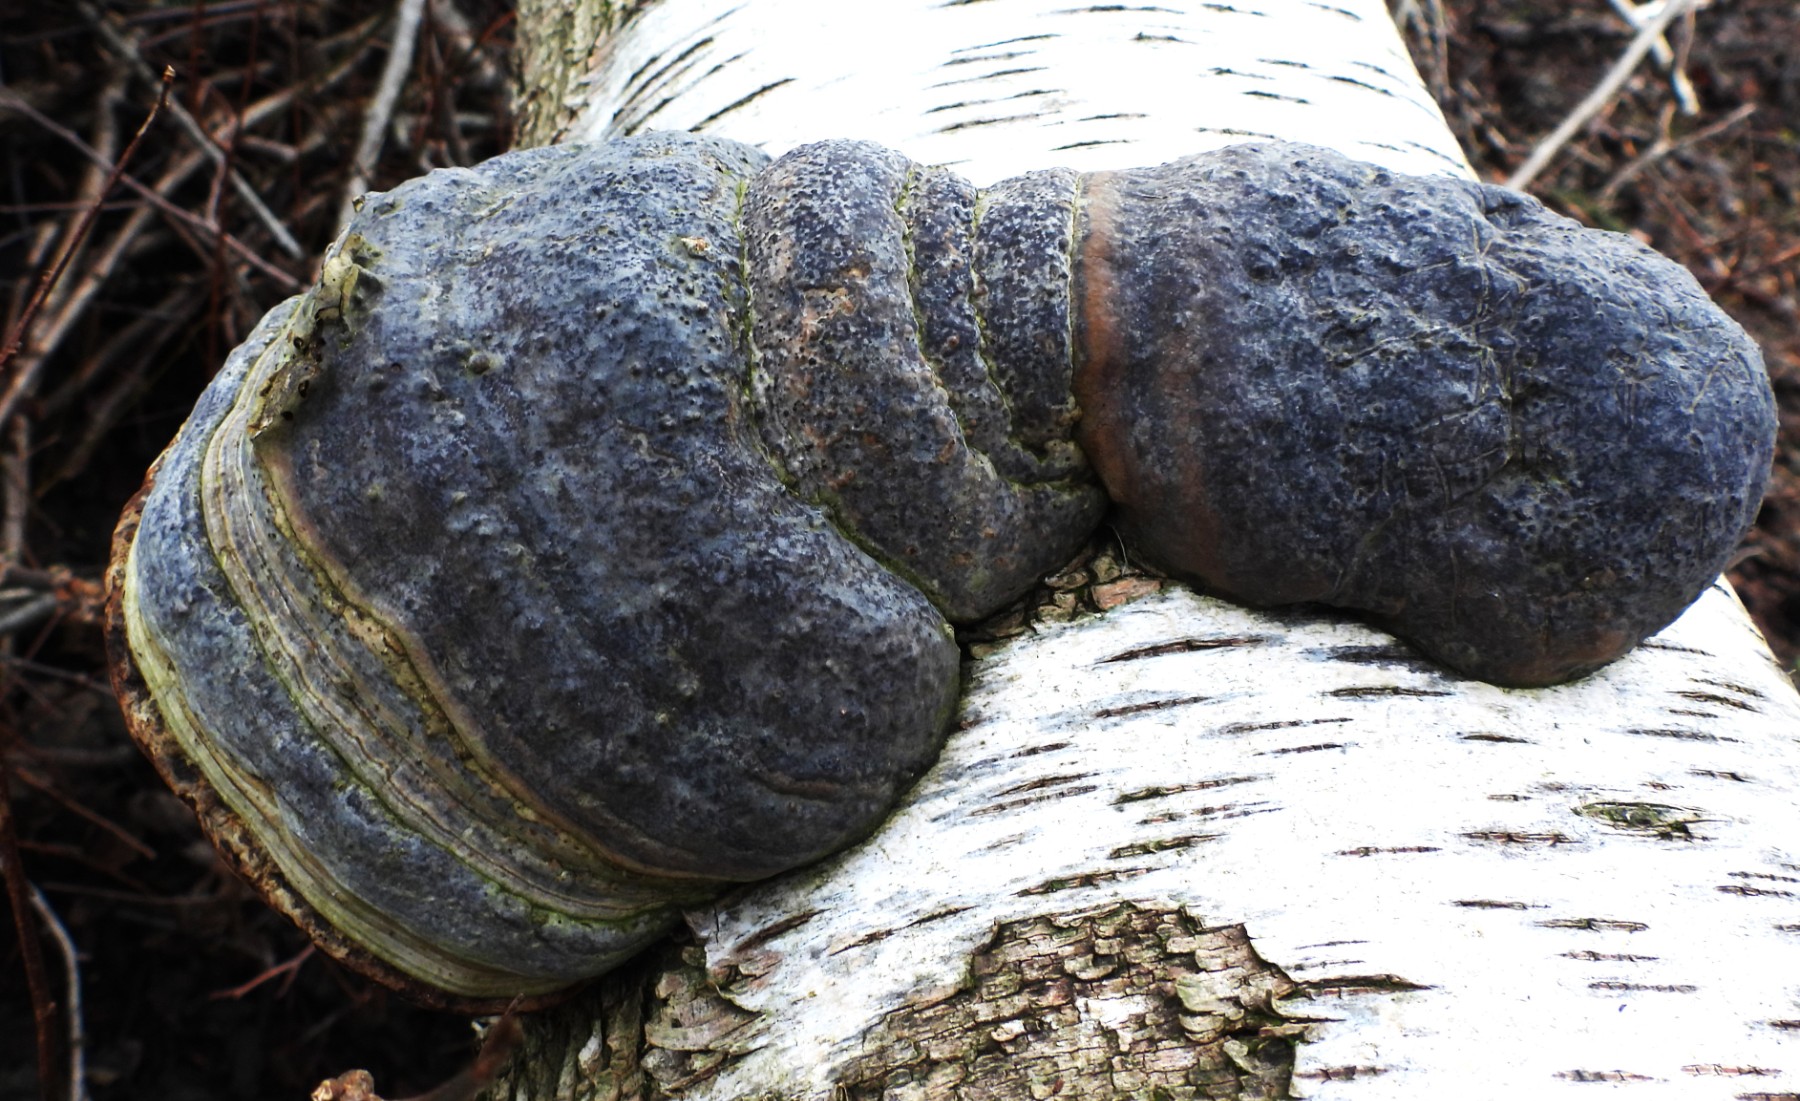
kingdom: Fungi
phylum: Basidiomycota
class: Agaricomycetes
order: Polyporales
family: Polyporaceae
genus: Fomes
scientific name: Fomes fomentarius
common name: tøndersvamp
